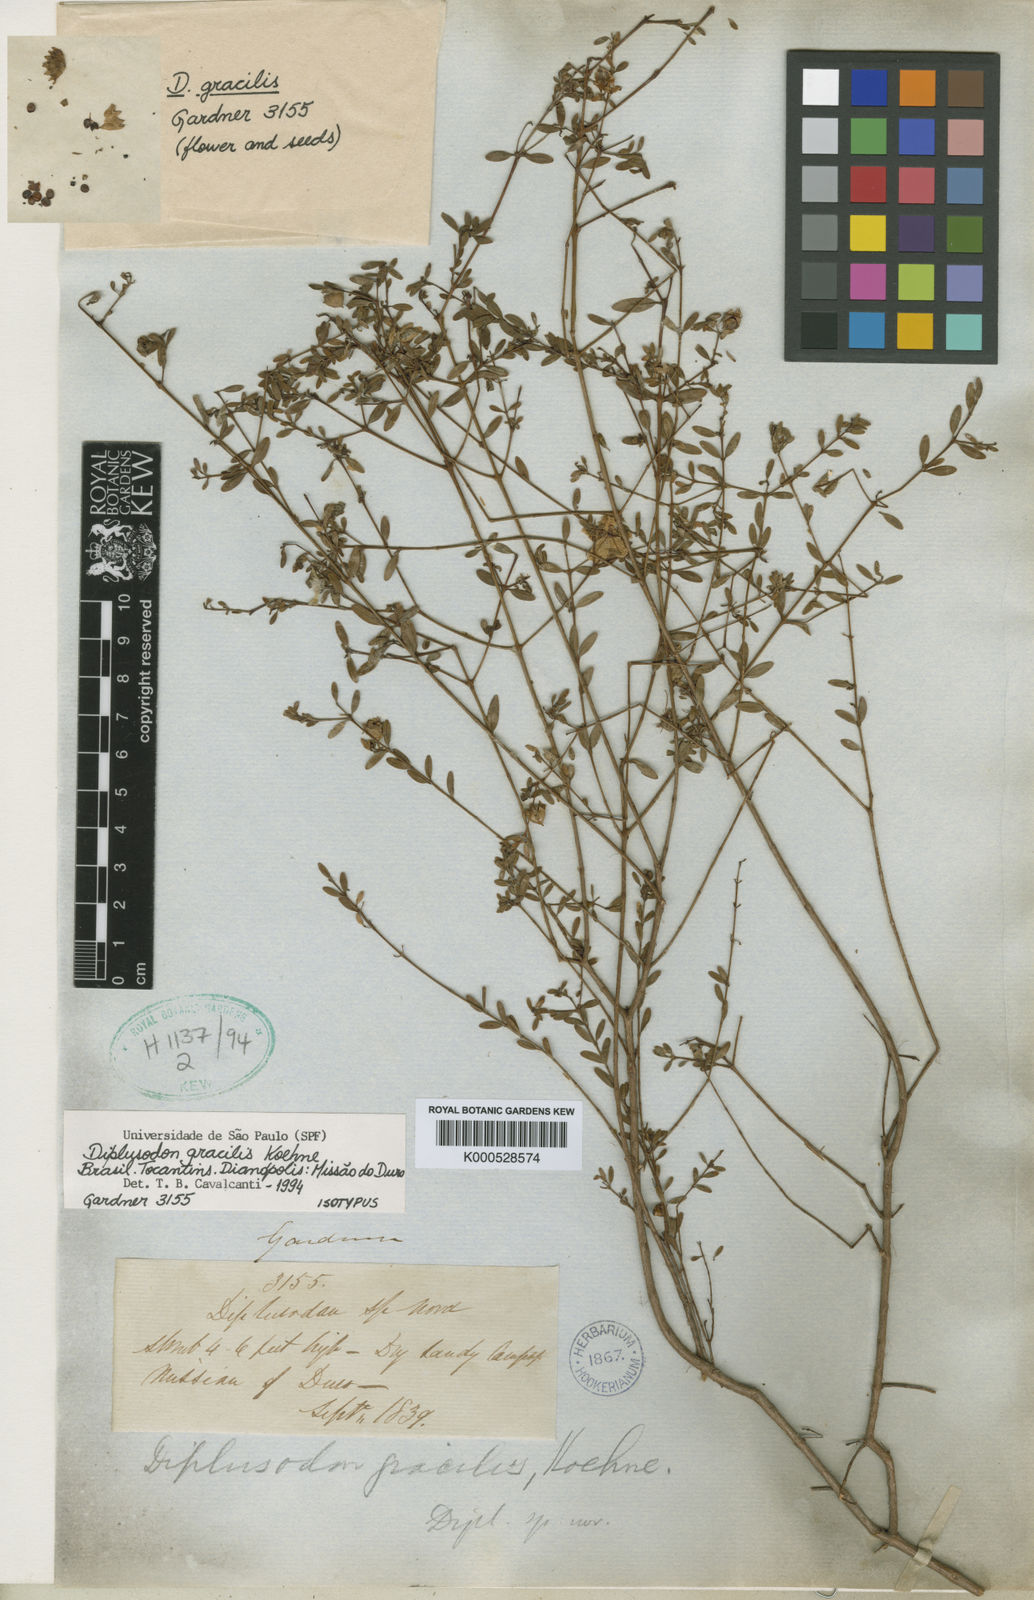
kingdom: Plantae
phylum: Tracheophyta
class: Magnoliopsida
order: Myrtales
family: Lythraceae
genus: Diplusodon
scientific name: Diplusodon gracilis
